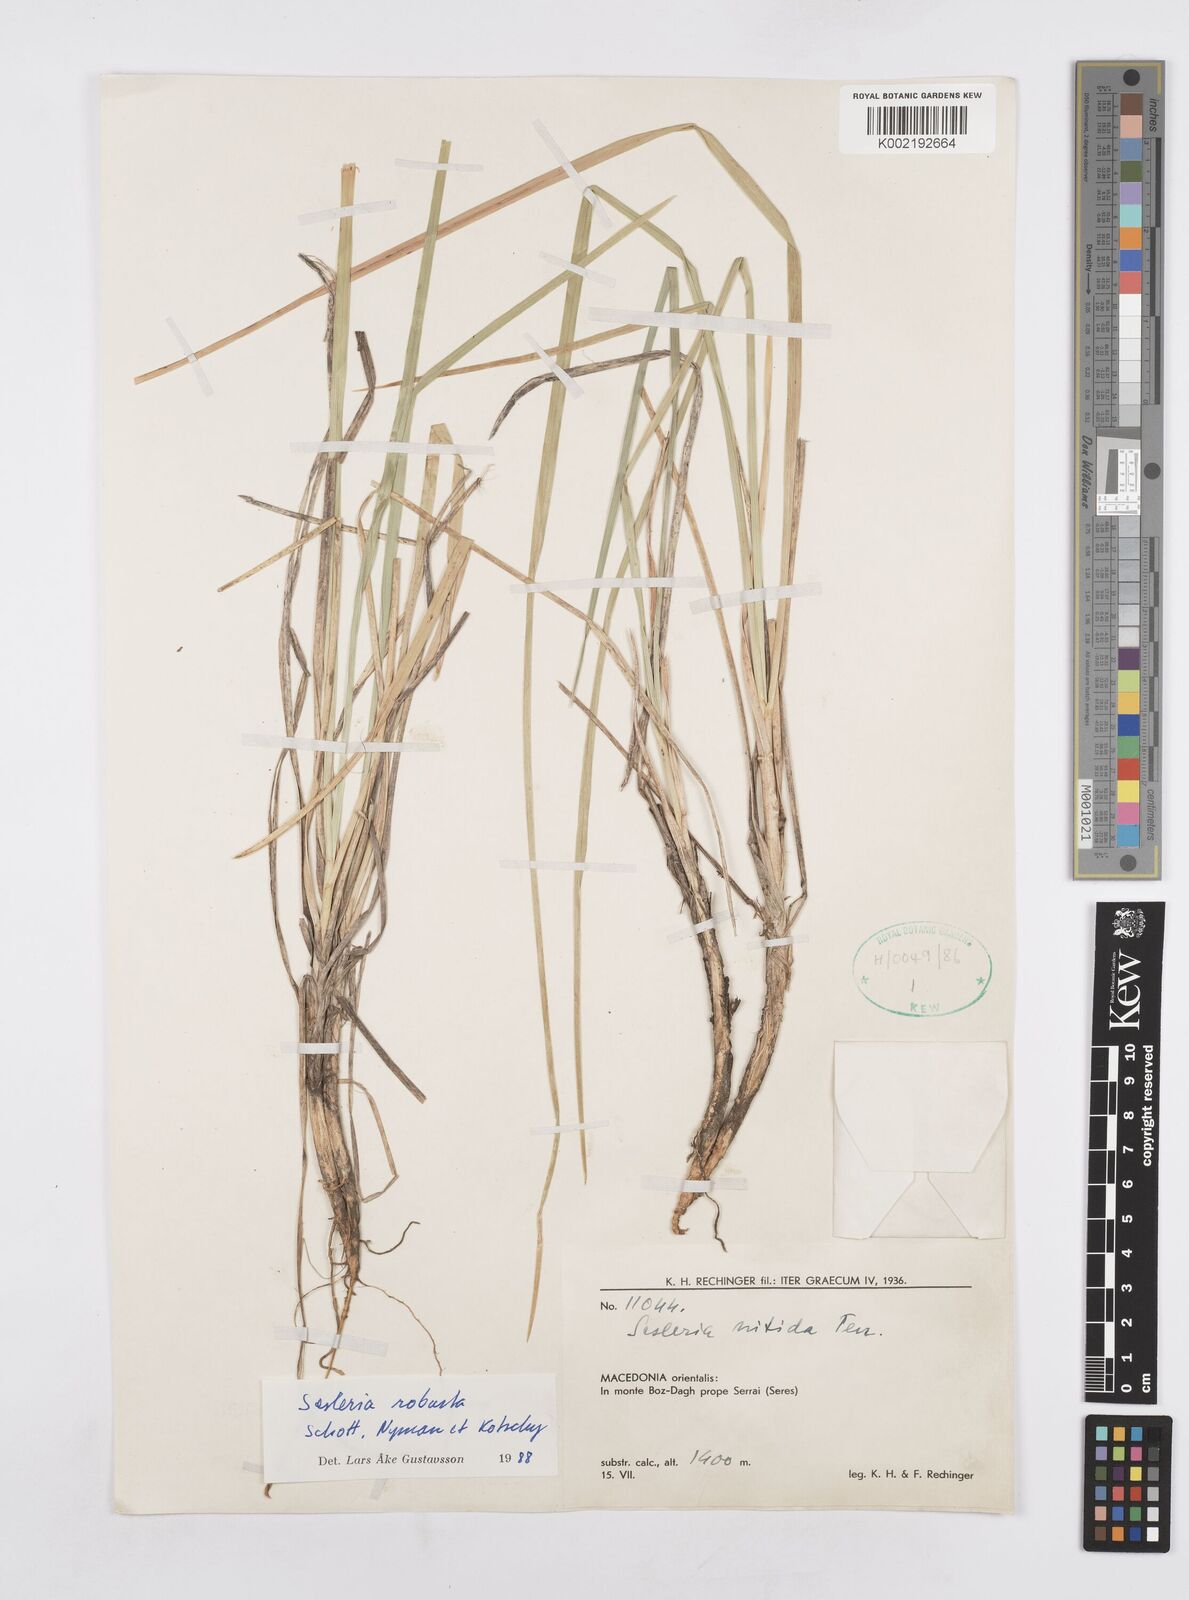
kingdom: Plantae
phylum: Tracheophyta
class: Liliopsida
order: Poales
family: Poaceae
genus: Sesleria
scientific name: Sesleria robusta
